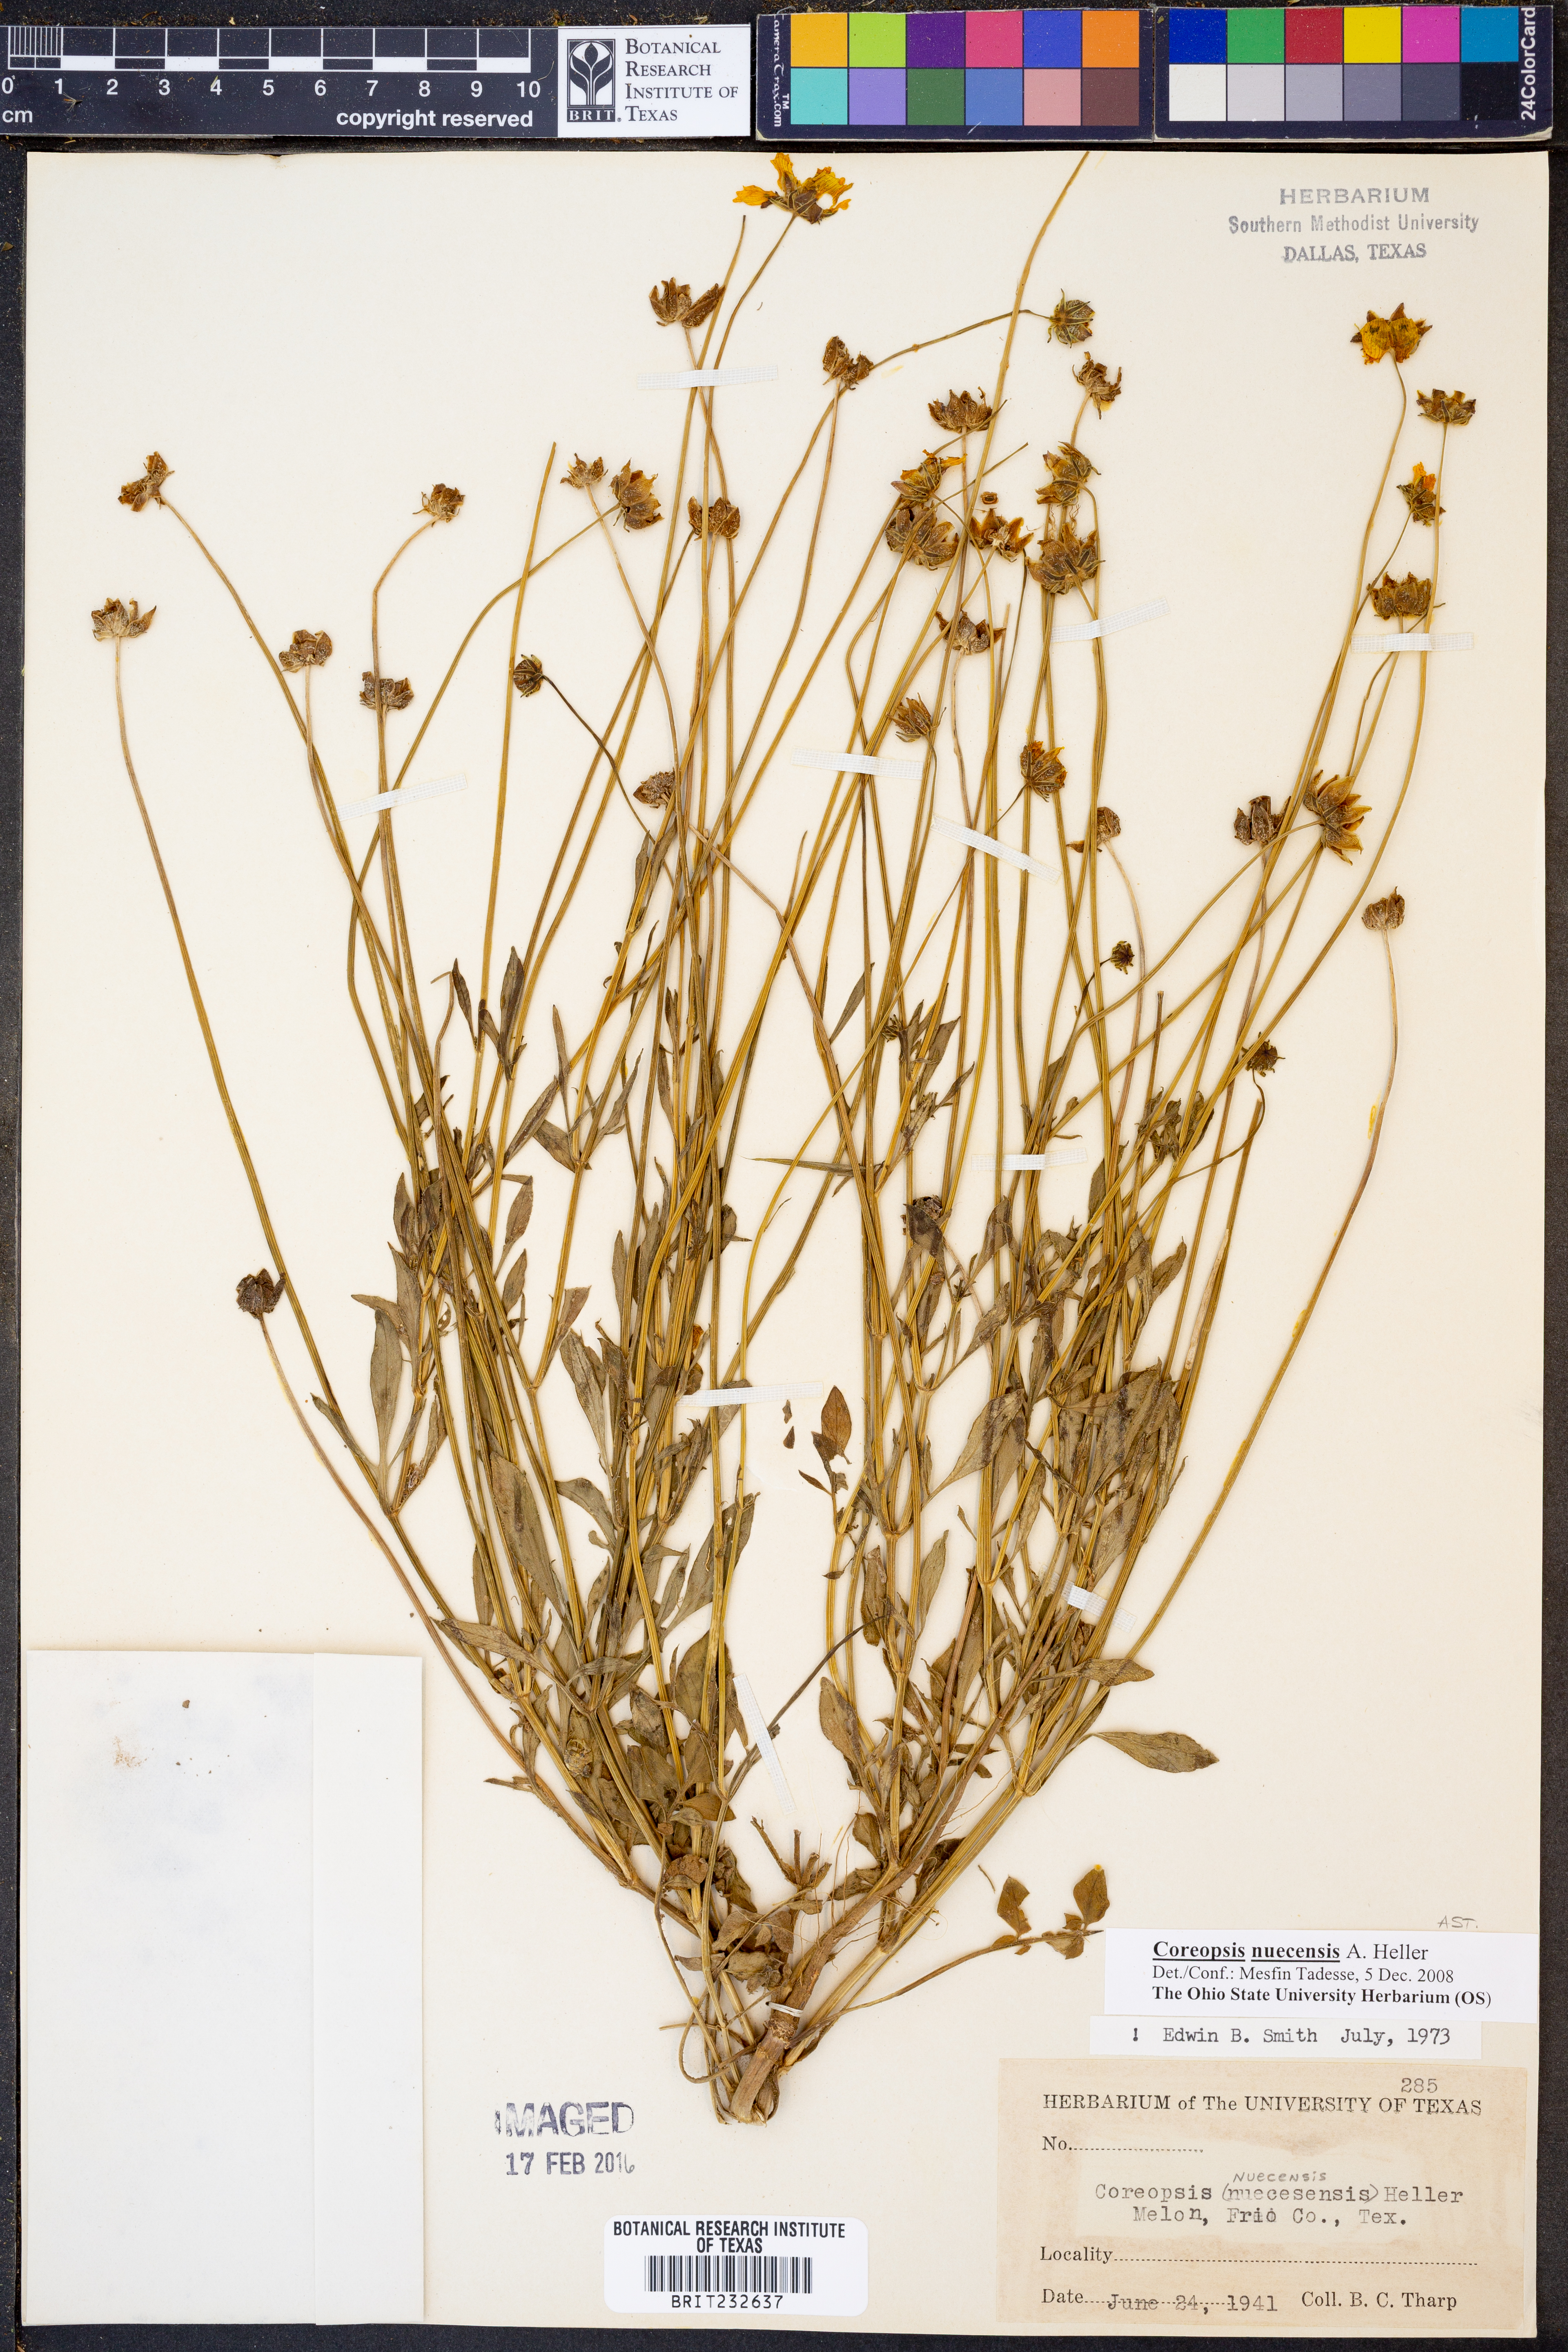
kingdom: Plantae
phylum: Tracheophyta
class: Magnoliopsida
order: Asterales
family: Asteraceae
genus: Coreopsis
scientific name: Coreopsis nuecensis
